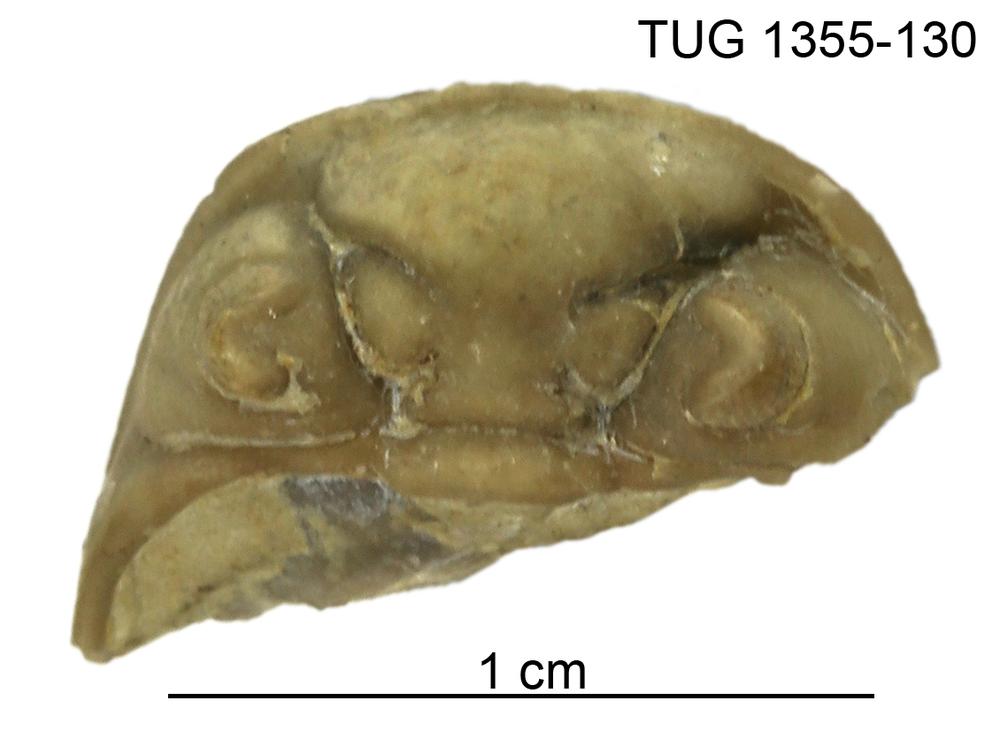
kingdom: Animalia
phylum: Arthropoda
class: Trilobita
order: Phacopida
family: Pterygometopidae
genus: Chasmops
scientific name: Chasmops
